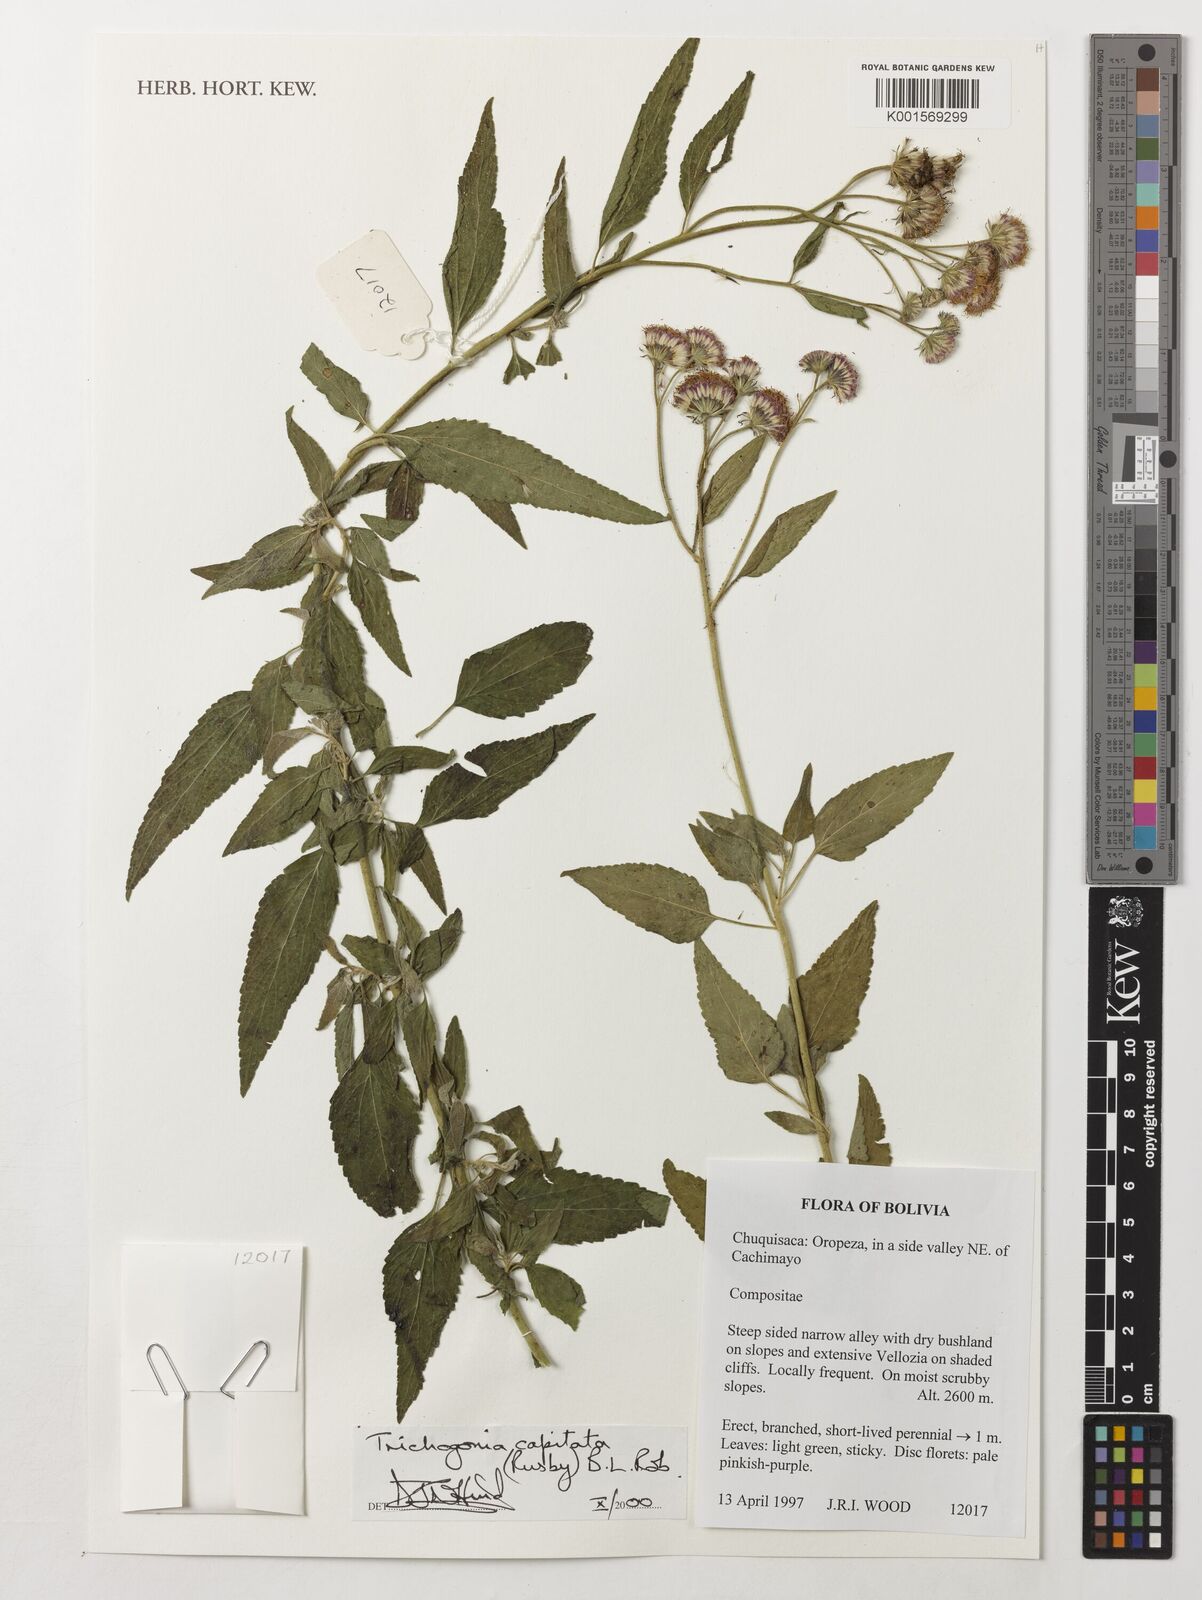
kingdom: Plantae
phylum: Tracheophyta
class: Magnoliopsida
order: Asterales
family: Asteraceae
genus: Trichogonia
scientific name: Trichogonia capitata
